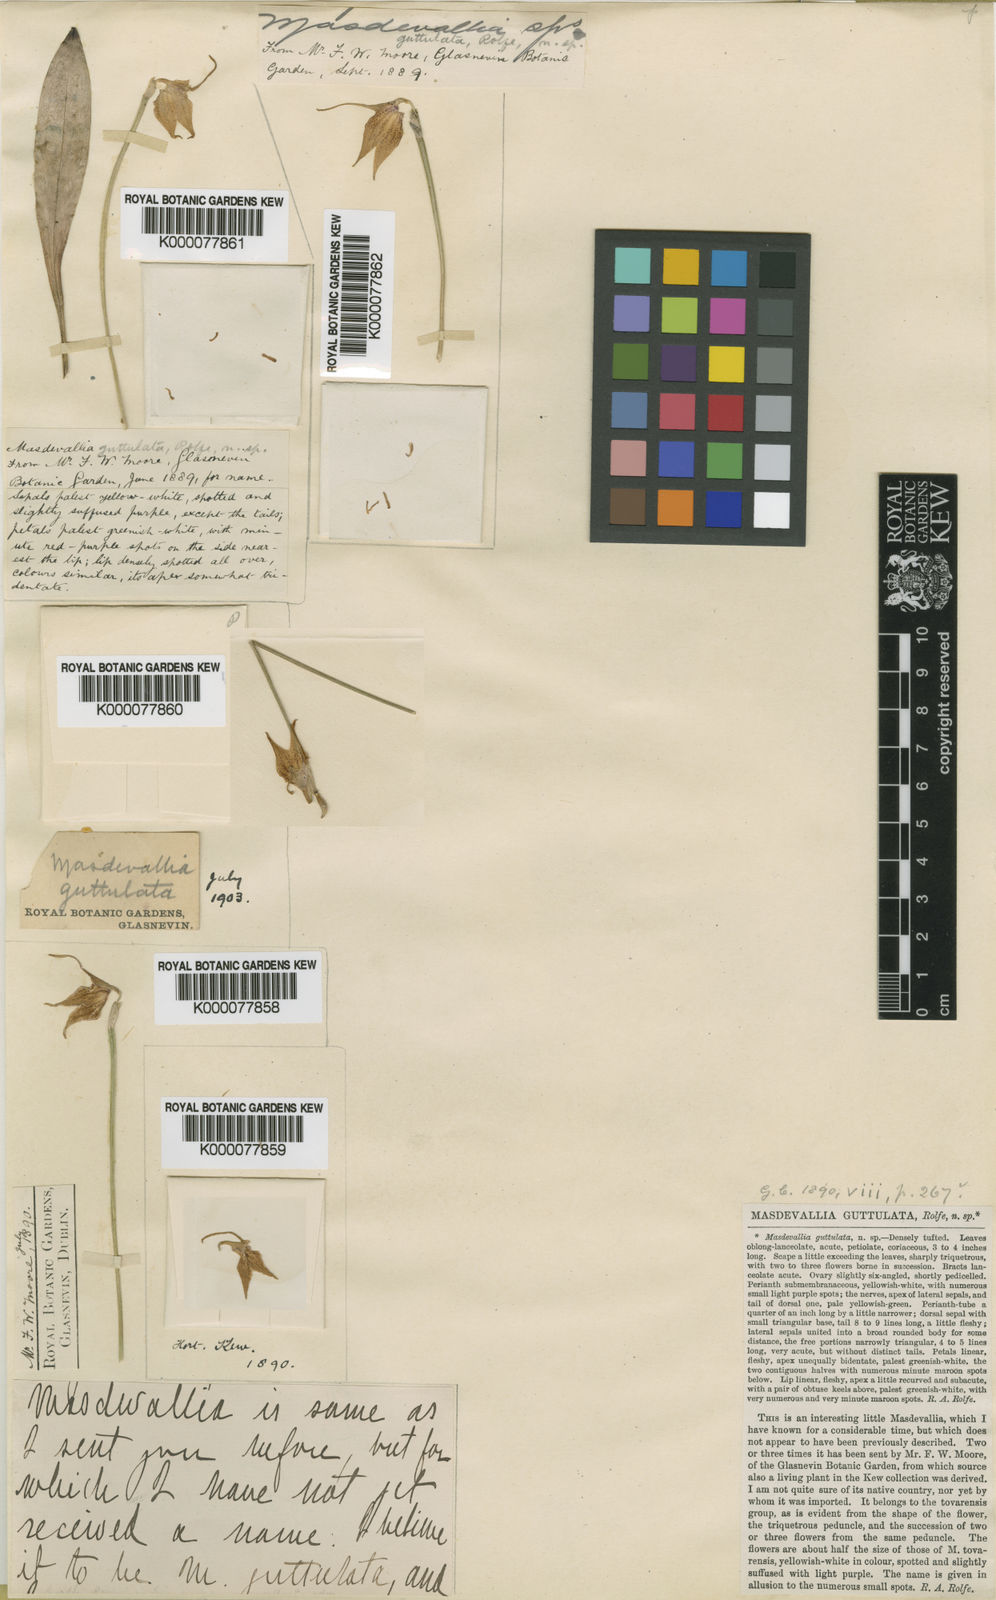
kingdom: Plantae
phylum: Tracheophyta
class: Liliopsida
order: Asparagales
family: Orchidaceae
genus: Masdevallia
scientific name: Masdevallia
